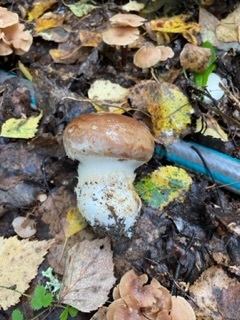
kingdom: Fungi
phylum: Basidiomycota
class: Agaricomycetes
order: Agaricales
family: Cortinariaceae
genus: Cortinarius
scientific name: Cortinarius praestans
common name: Goliath webcap
